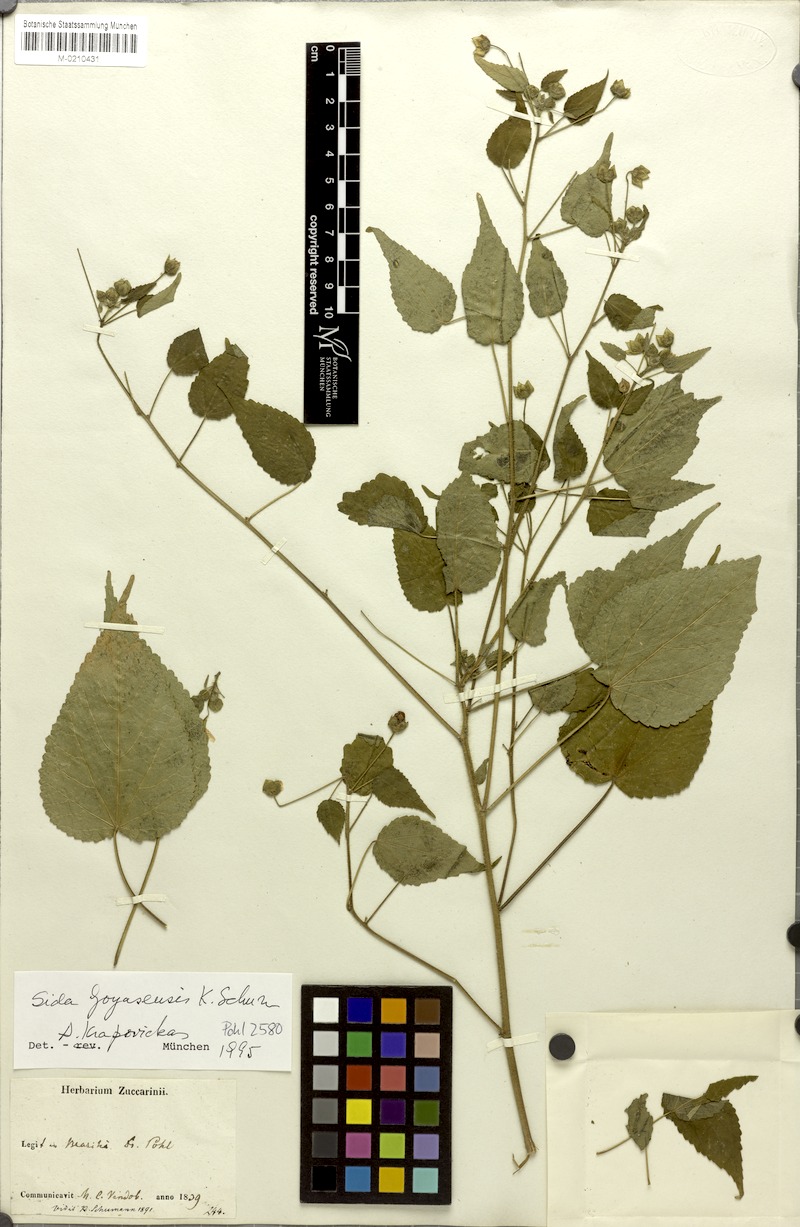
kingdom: Plantae
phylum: Tracheophyta
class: Magnoliopsida
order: Malvales
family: Malvaceae
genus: Sida
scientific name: Sida goyazensis
